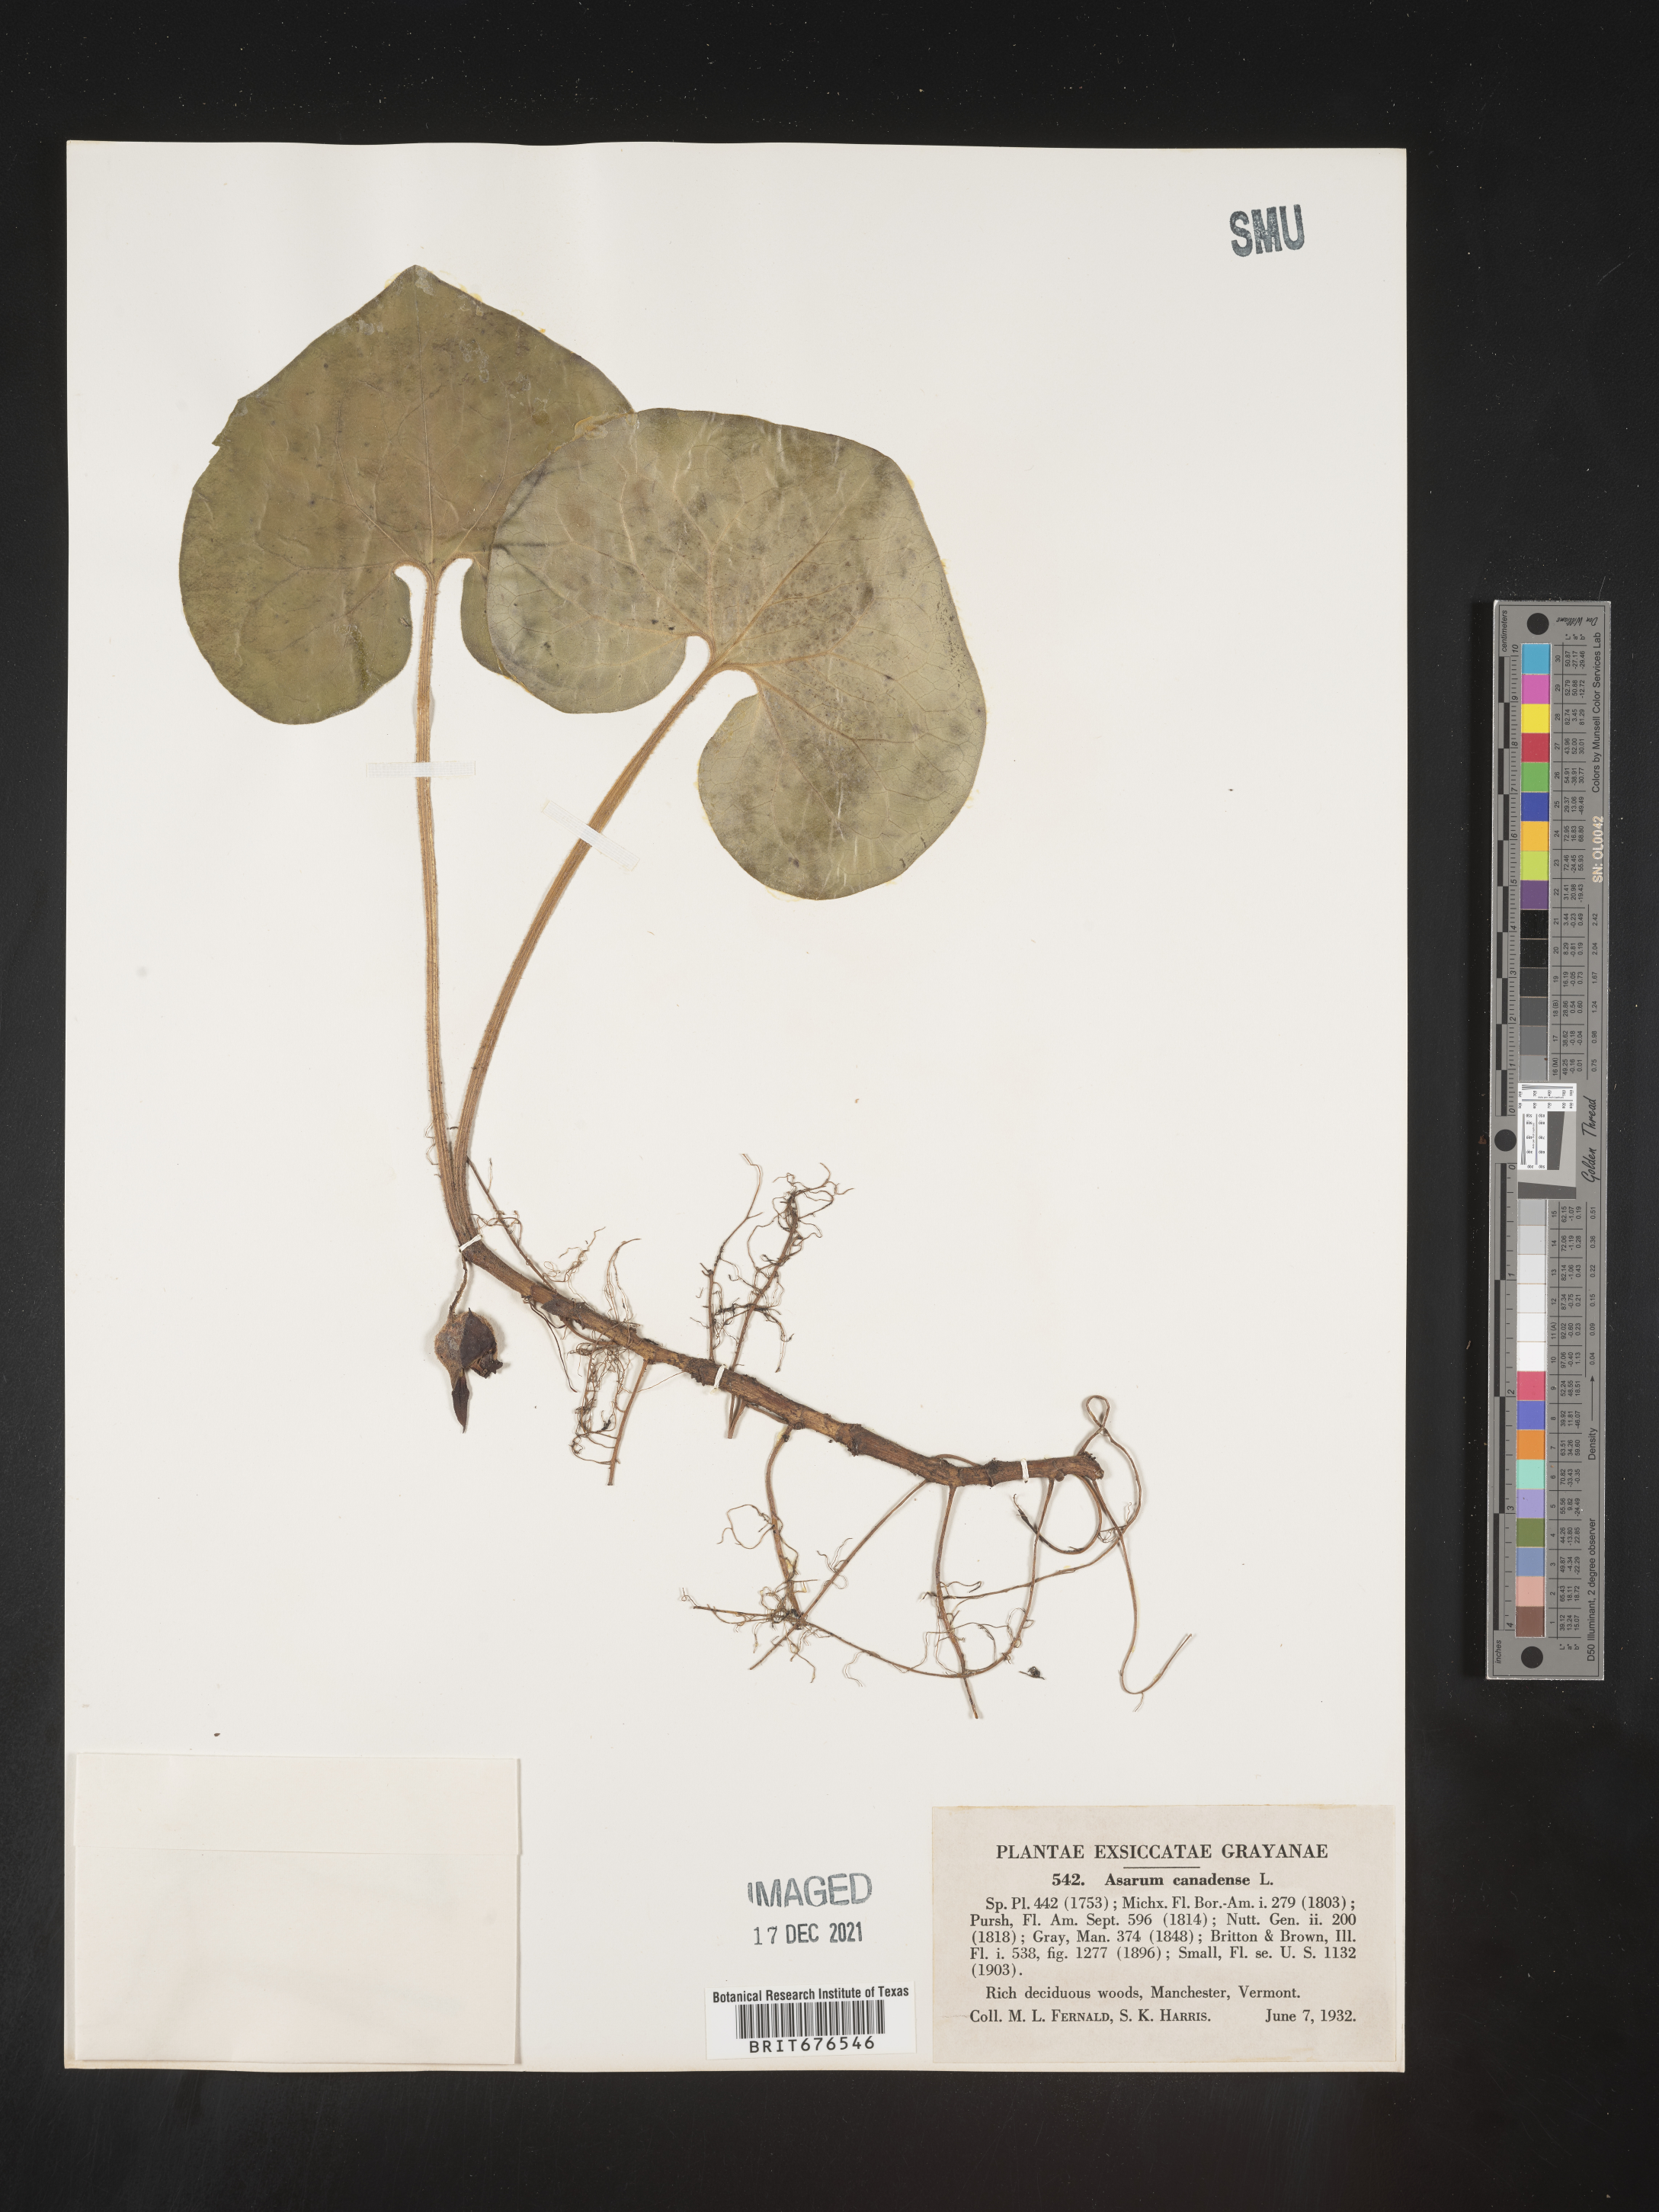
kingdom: Plantae
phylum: Tracheophyta
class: Magnoliopsida
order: Piperales
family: Aristolochiaceae
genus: Asarum
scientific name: Asarum canadense
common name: Wild ginger
